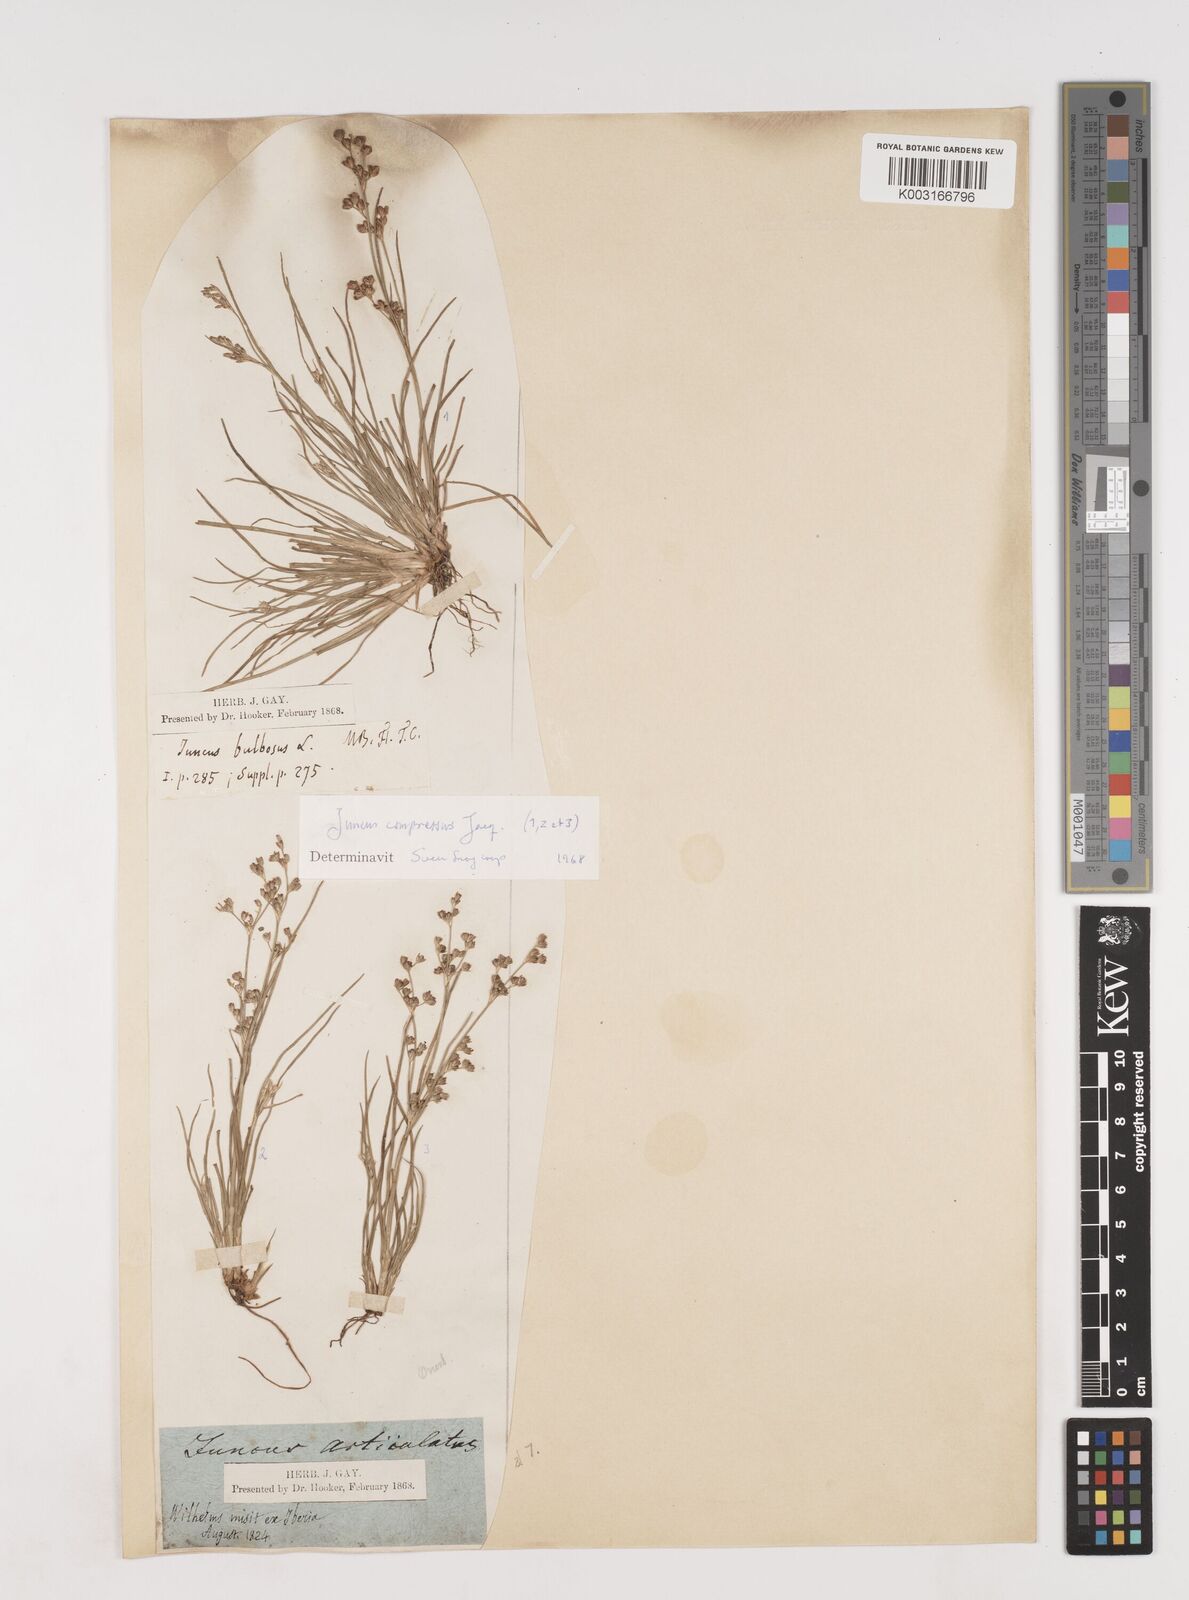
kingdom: Plantae
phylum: Tracheophyta
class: Liliopsida
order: Poales
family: Juncaceae
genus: Juncus
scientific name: Juncus compressus
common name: Round-fruited rush
